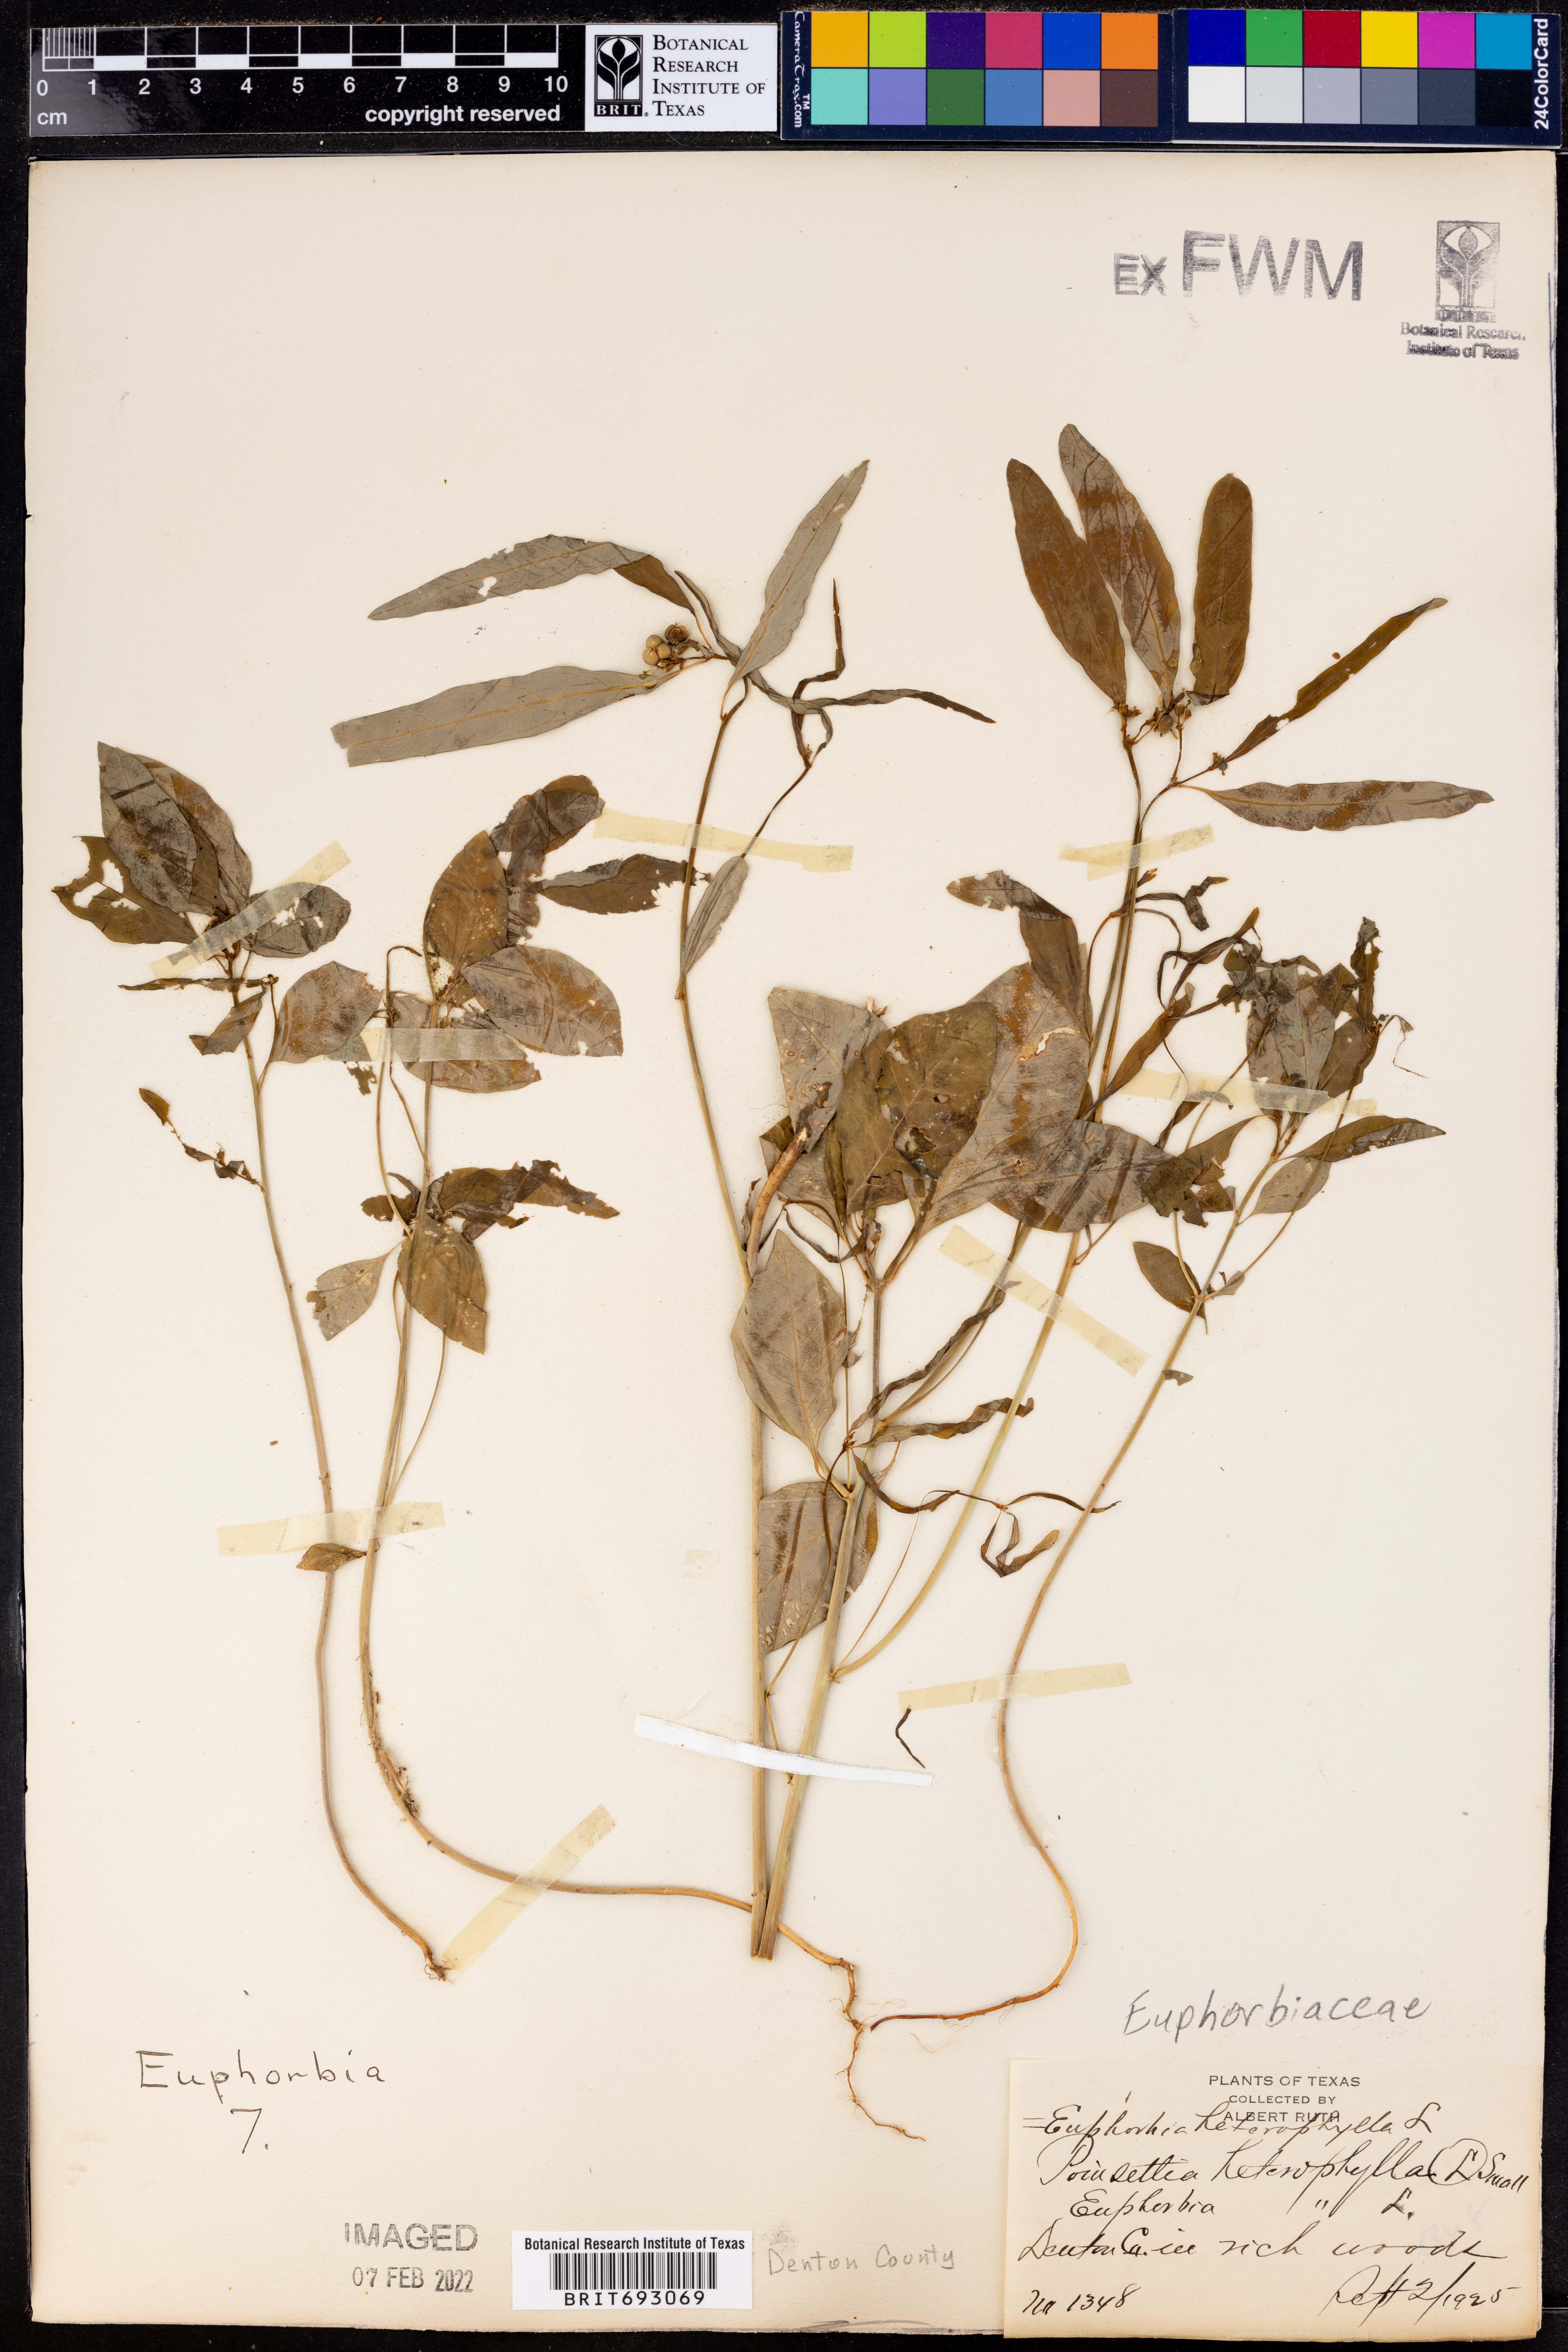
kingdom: Plantae
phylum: Tracheophyta
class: Magnoliopsida
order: Malpighiales
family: Euphorbiaceae
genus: Euphorbia
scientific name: Euphorbia heterophylla
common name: Mexican fireplant
